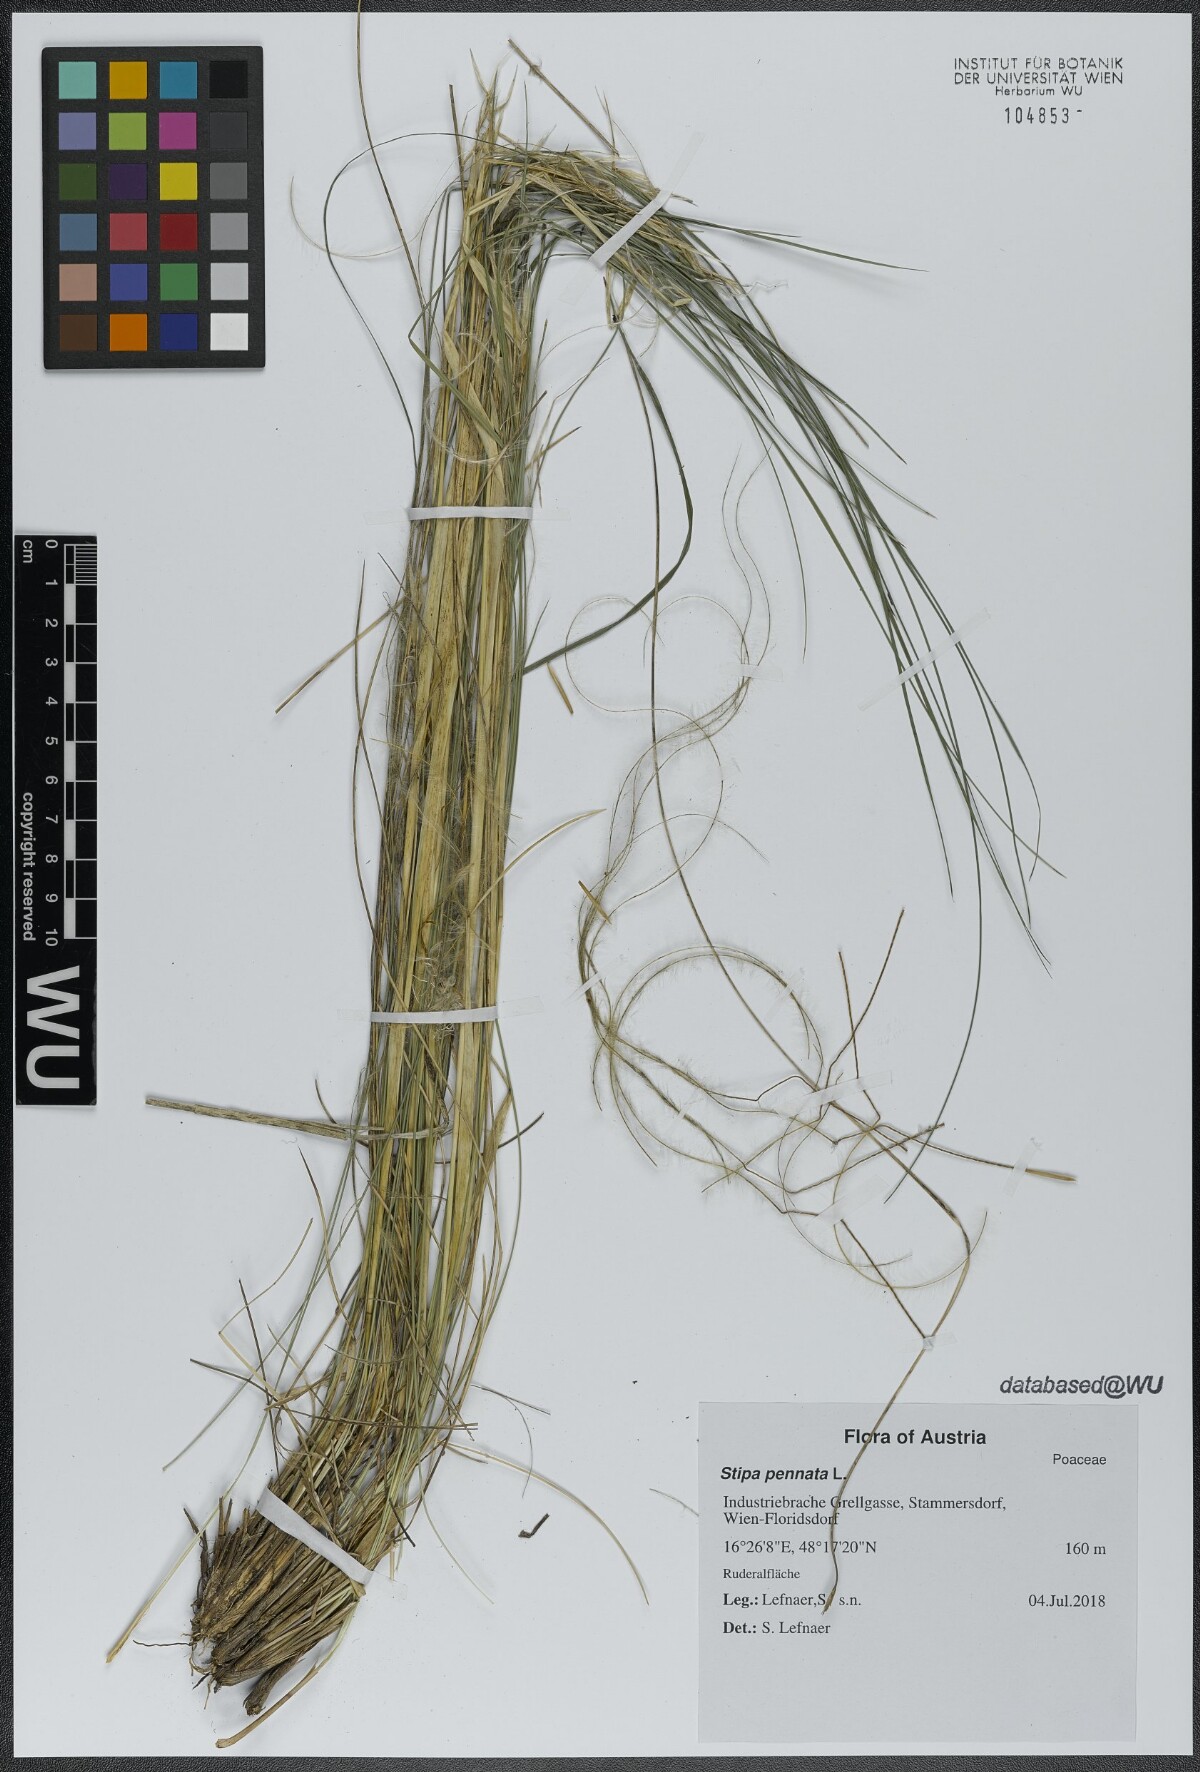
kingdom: Plantae
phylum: Tracheophyta
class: Liliopsida
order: Poales
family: Poaceae
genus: Stipa
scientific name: Stipa pennata
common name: European feather grass
